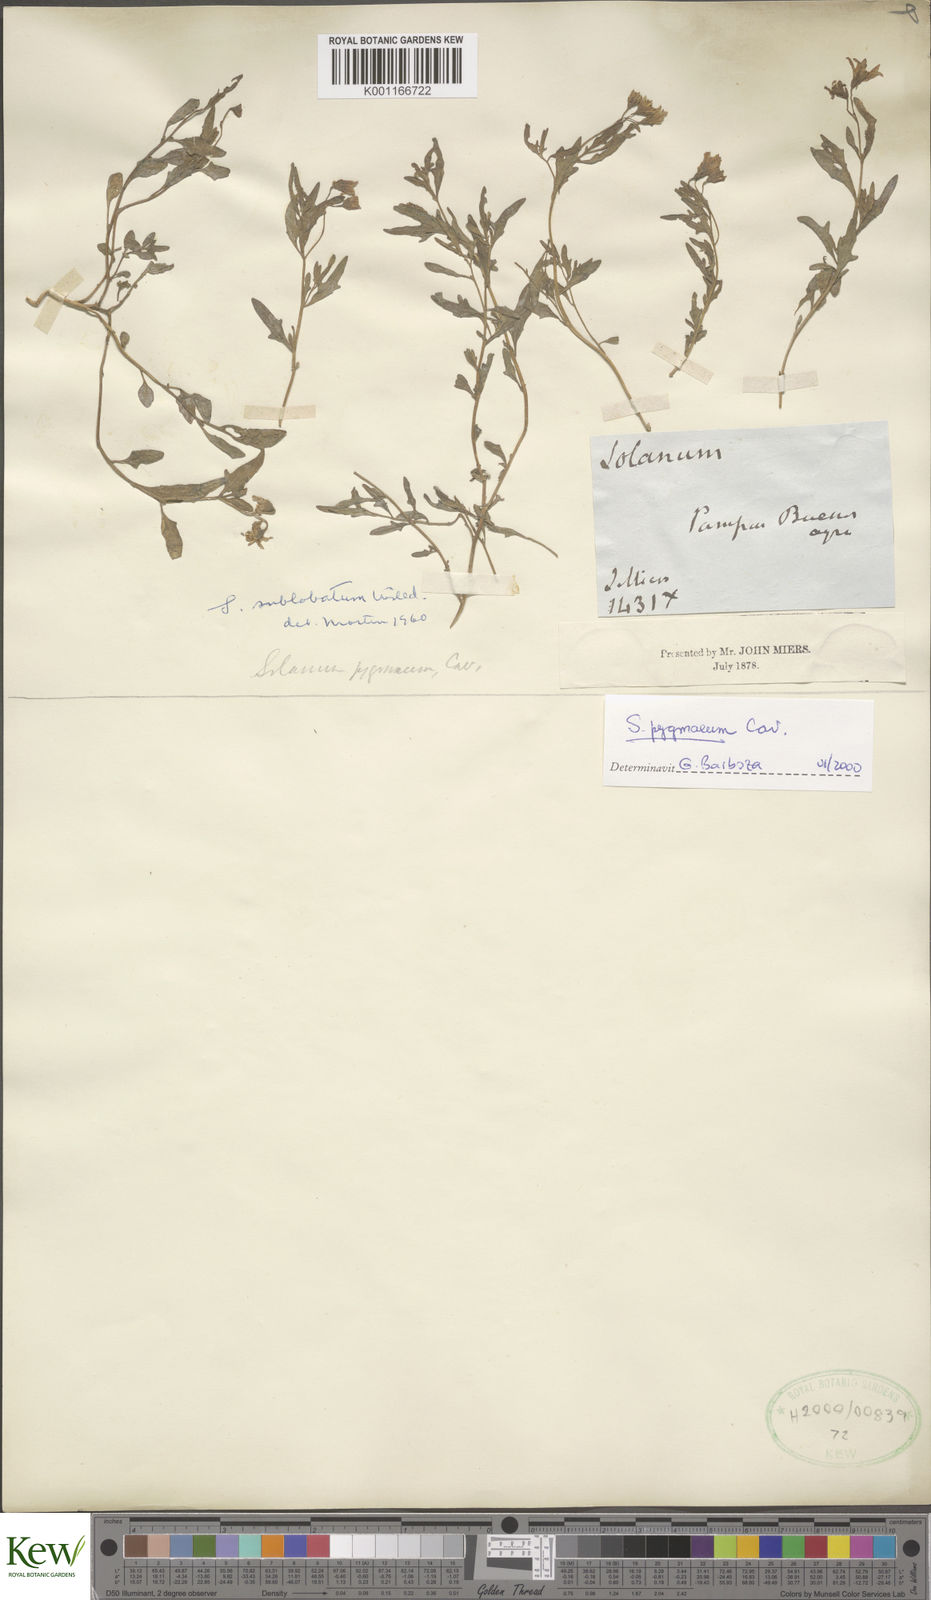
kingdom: Plantae
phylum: Tracheophyta
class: Magnoliopsida
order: Solanales
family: Solanaceae
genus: Solanum
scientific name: Solanum pygmaeum
